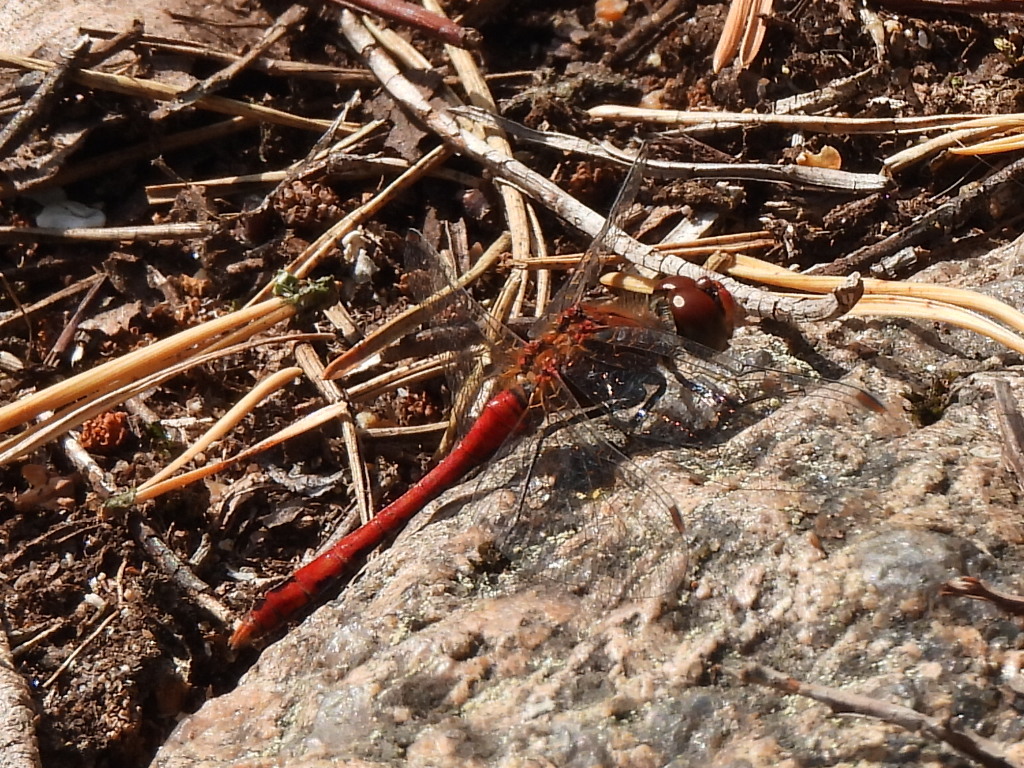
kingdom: Animalia
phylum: Arthropoda
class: Insecta
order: Odonata
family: Libellulidae
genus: Sympetrum
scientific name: Sympetrum sanguineum
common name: Ruddy darter
